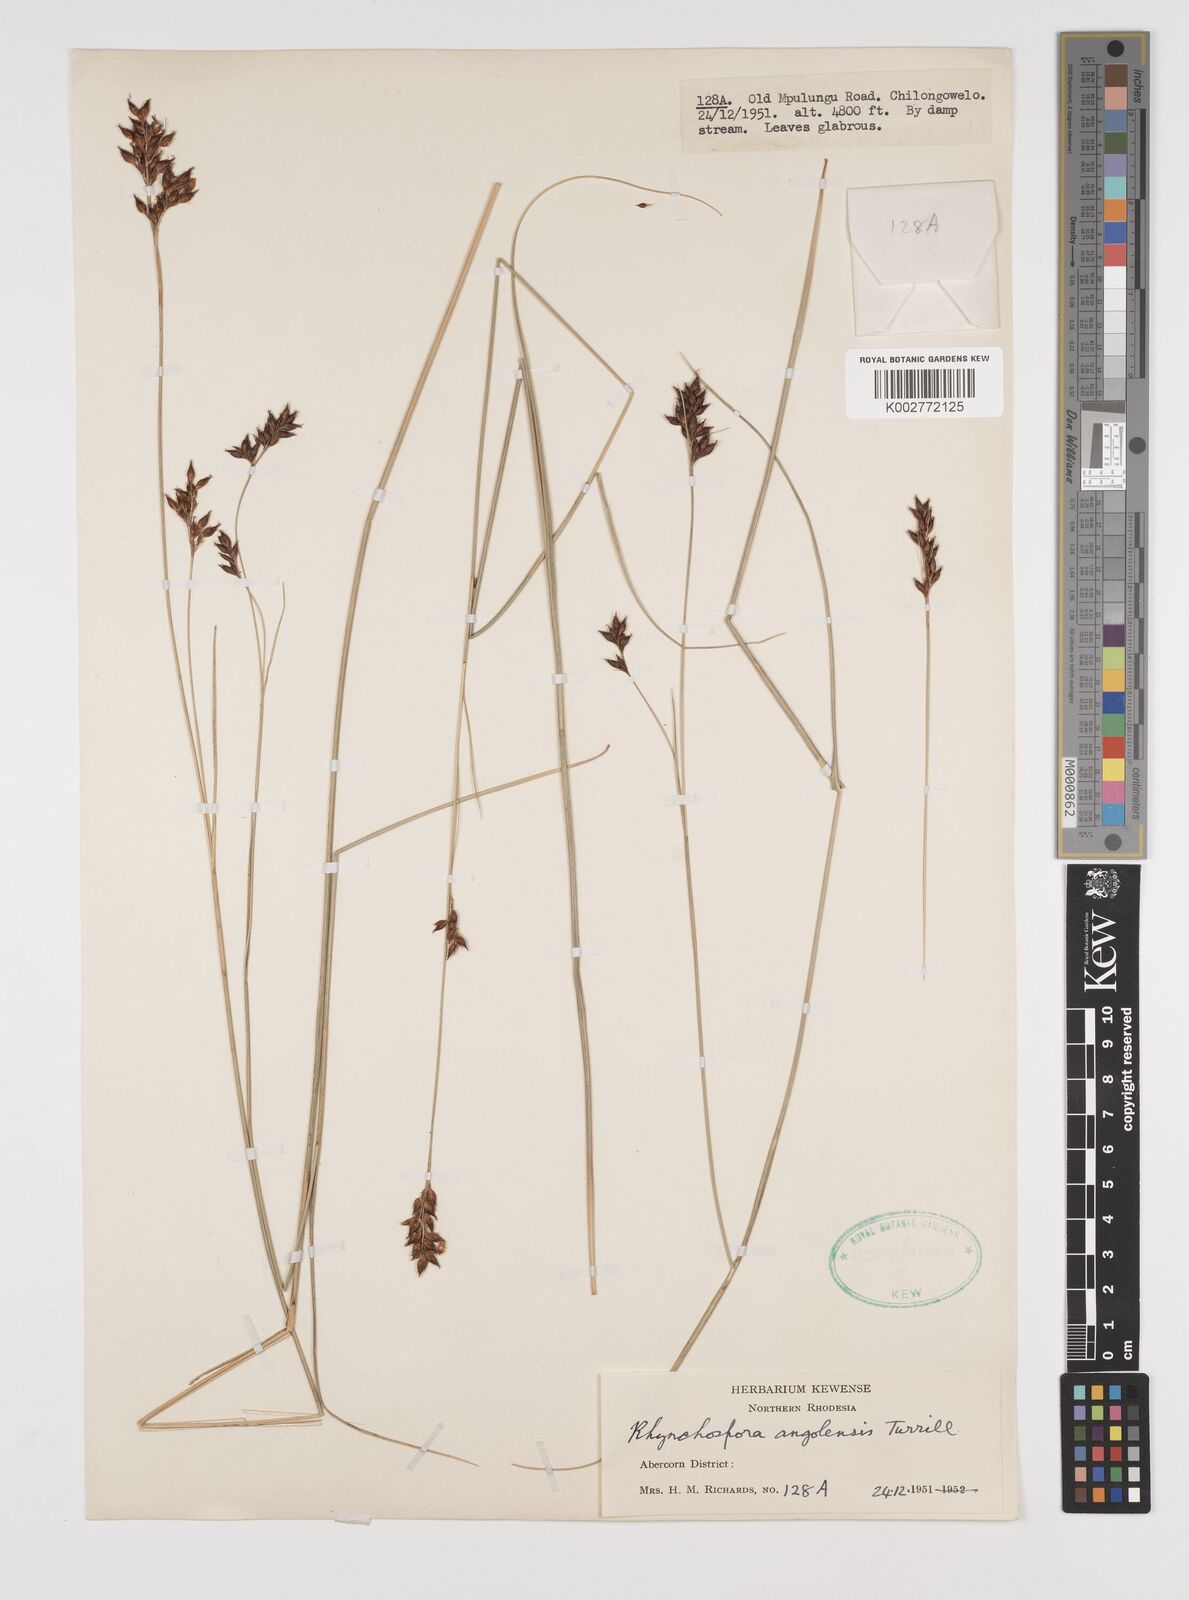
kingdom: Plantae
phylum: Tracheophyta
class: Liliopsida
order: Poales
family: Cyperaceae
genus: Rhynchospora
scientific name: Rhynchospora angolensis
